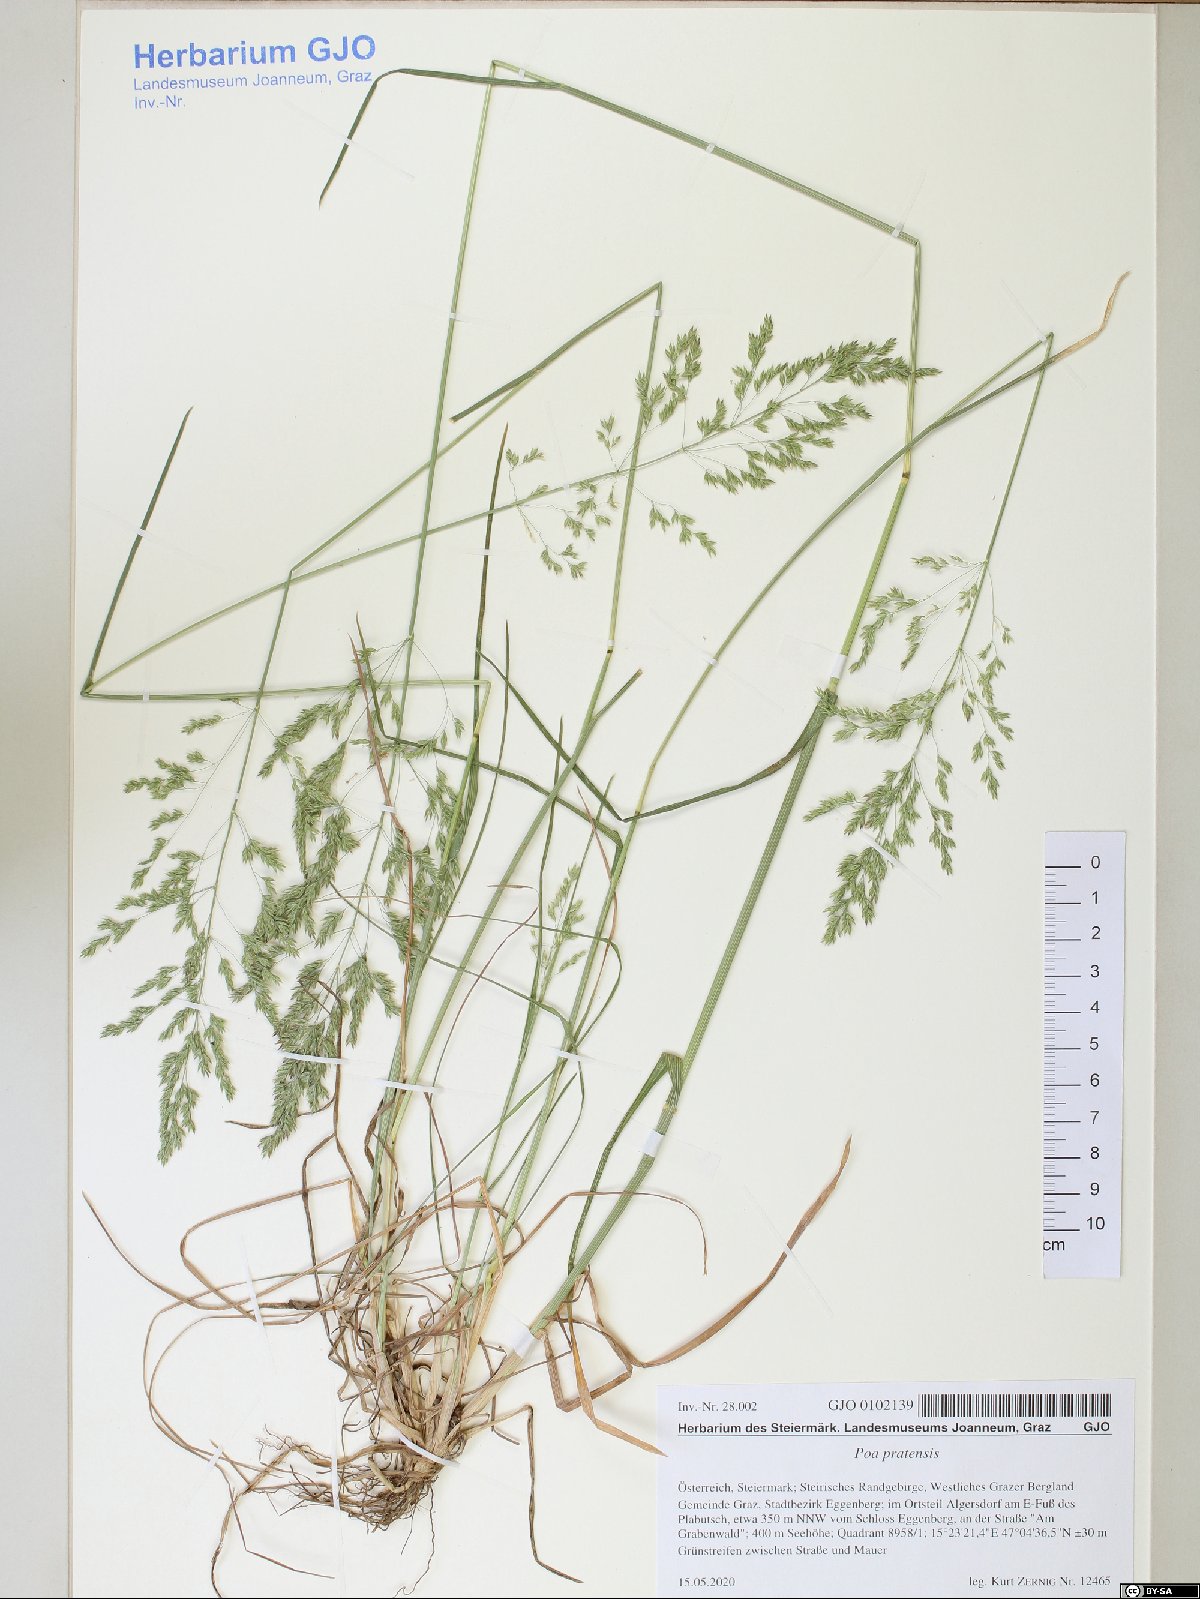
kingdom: Plantae
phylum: Tracheophyta
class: Liliopsida
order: Poales
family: Poaceae
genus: Poa
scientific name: Poa pratensis
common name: Kentucky bluegrass
